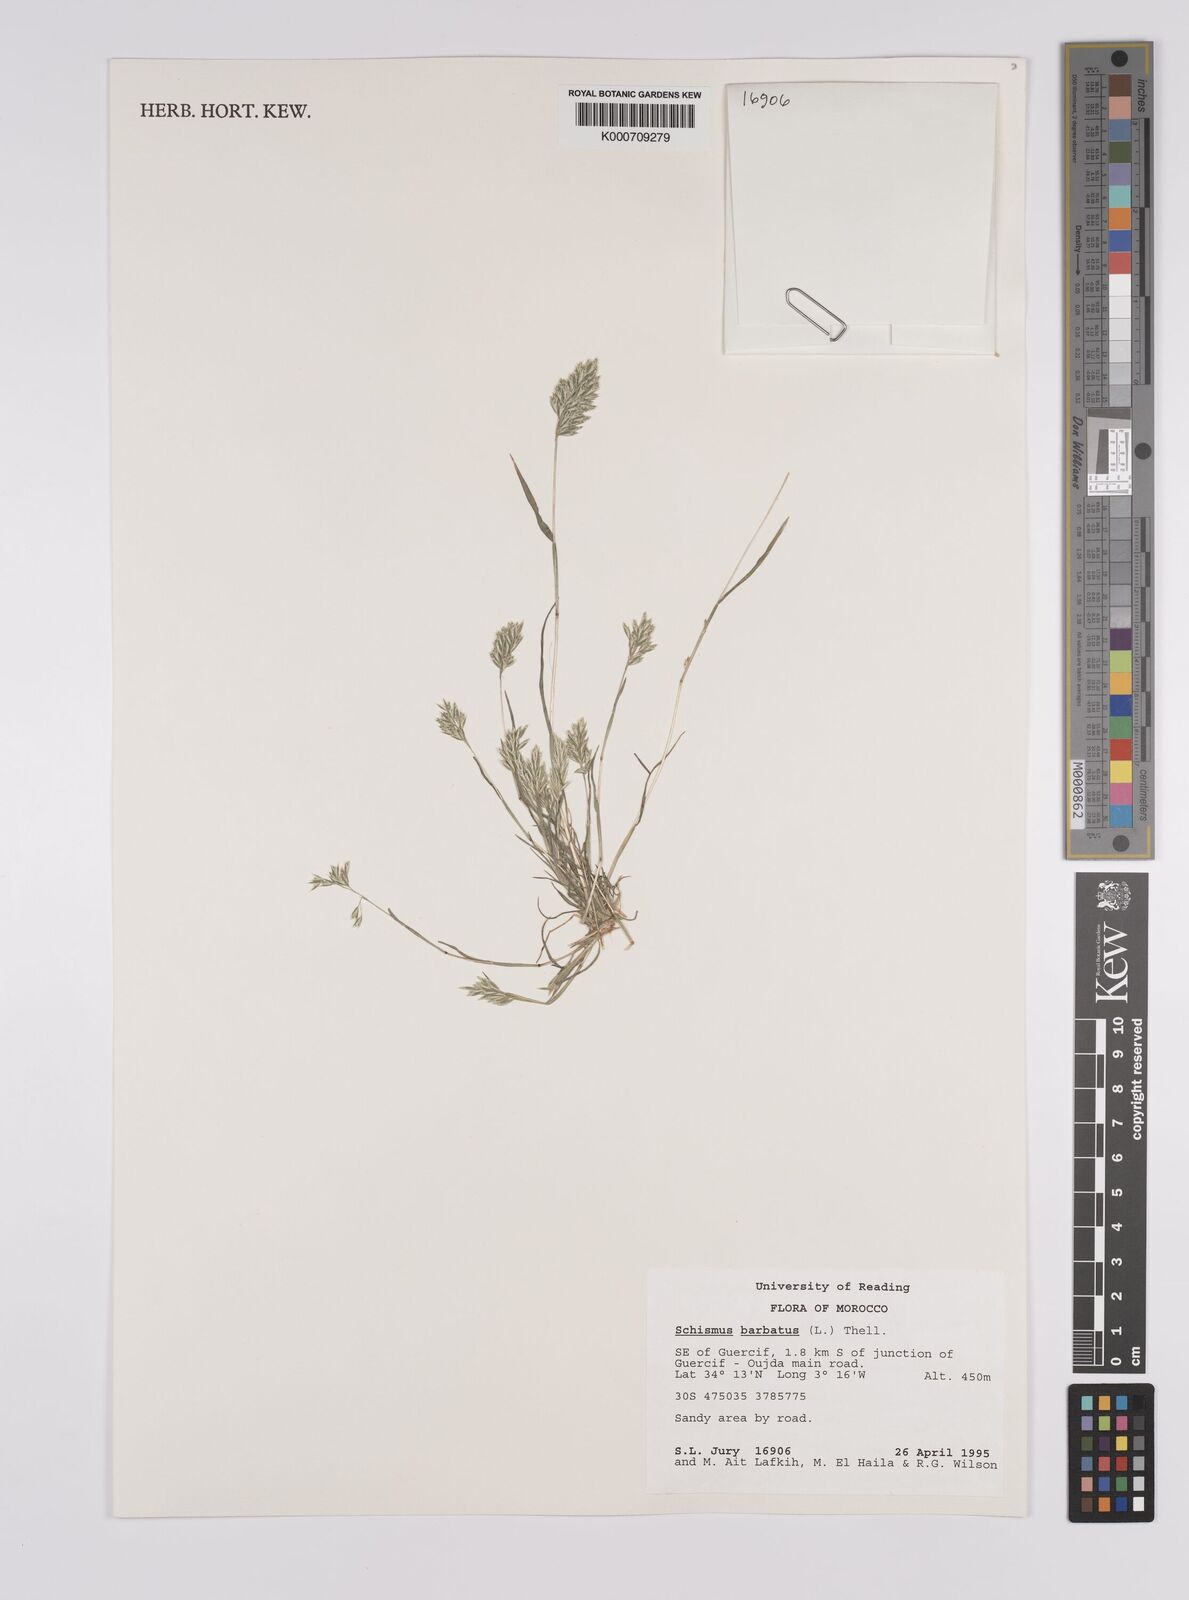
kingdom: Plantae
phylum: Tracheophyta
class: Liliopsida
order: Poales
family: Poaceae
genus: Schismus
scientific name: Schismus barbatus
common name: Kelch-grass
